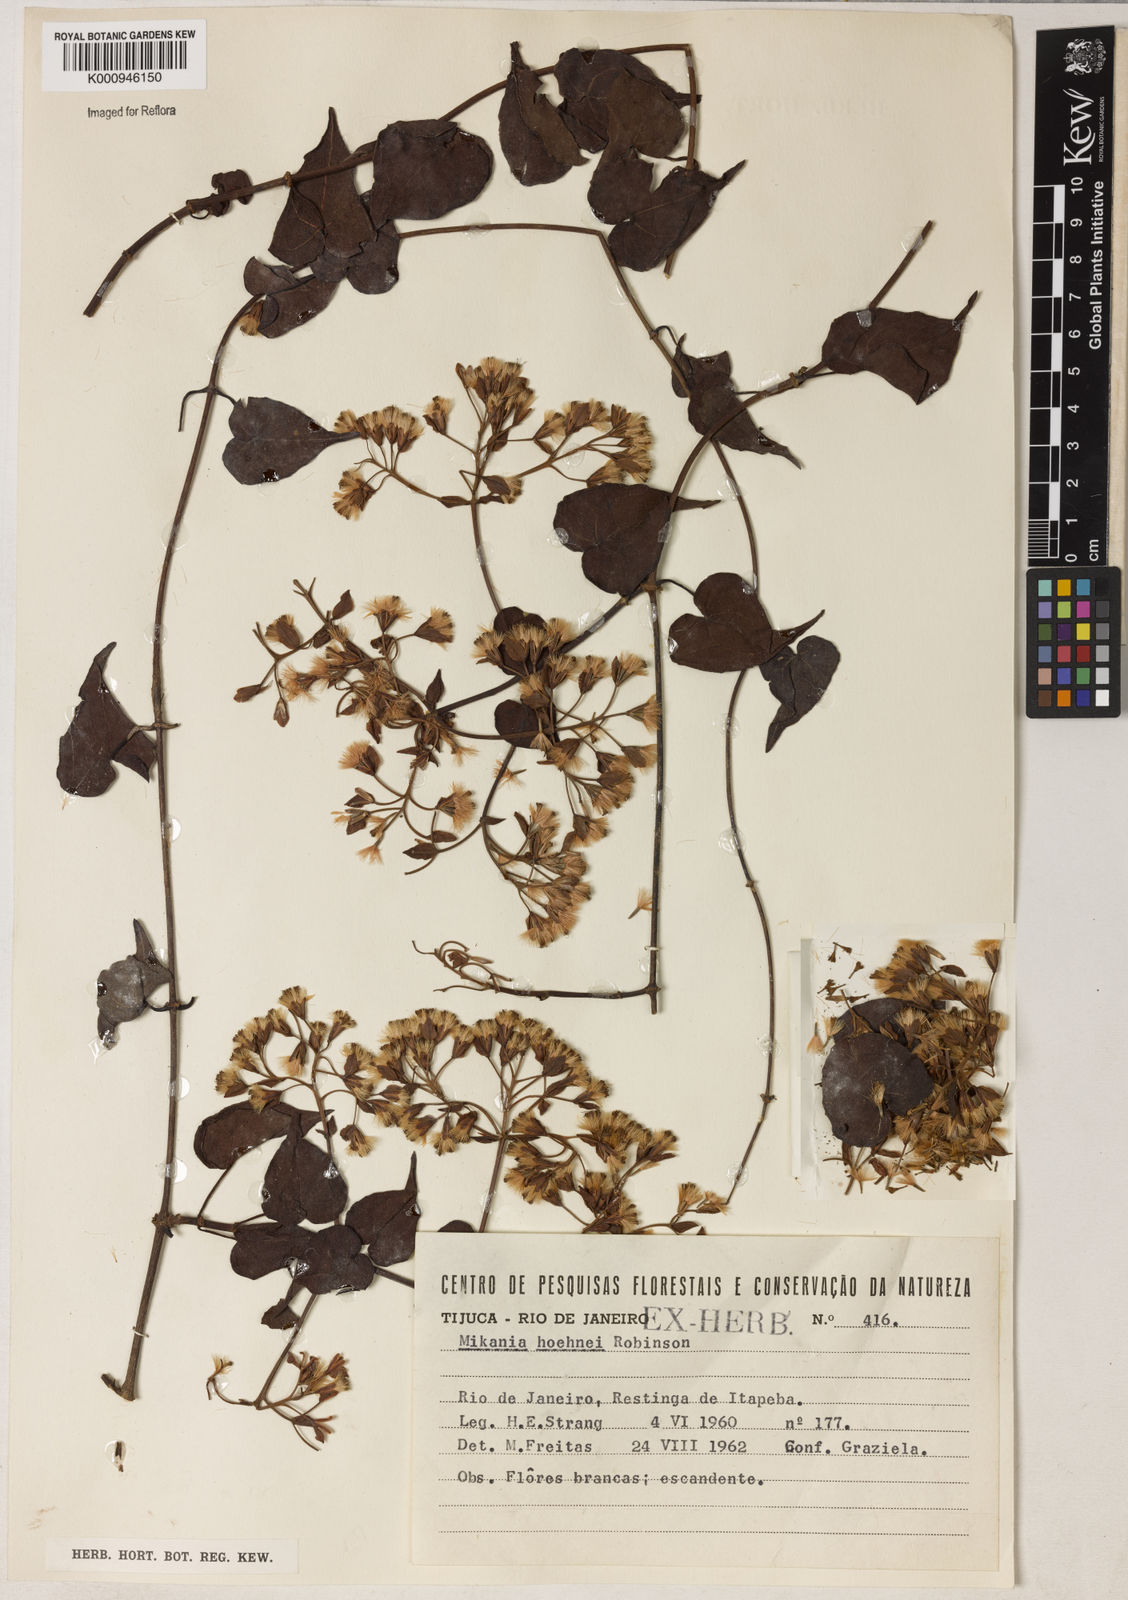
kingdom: Plantae
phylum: Tracheophyta
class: Magnoliopsida
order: Asterales
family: Asteraceae
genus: Mikania
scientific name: Mikania hoehnei
